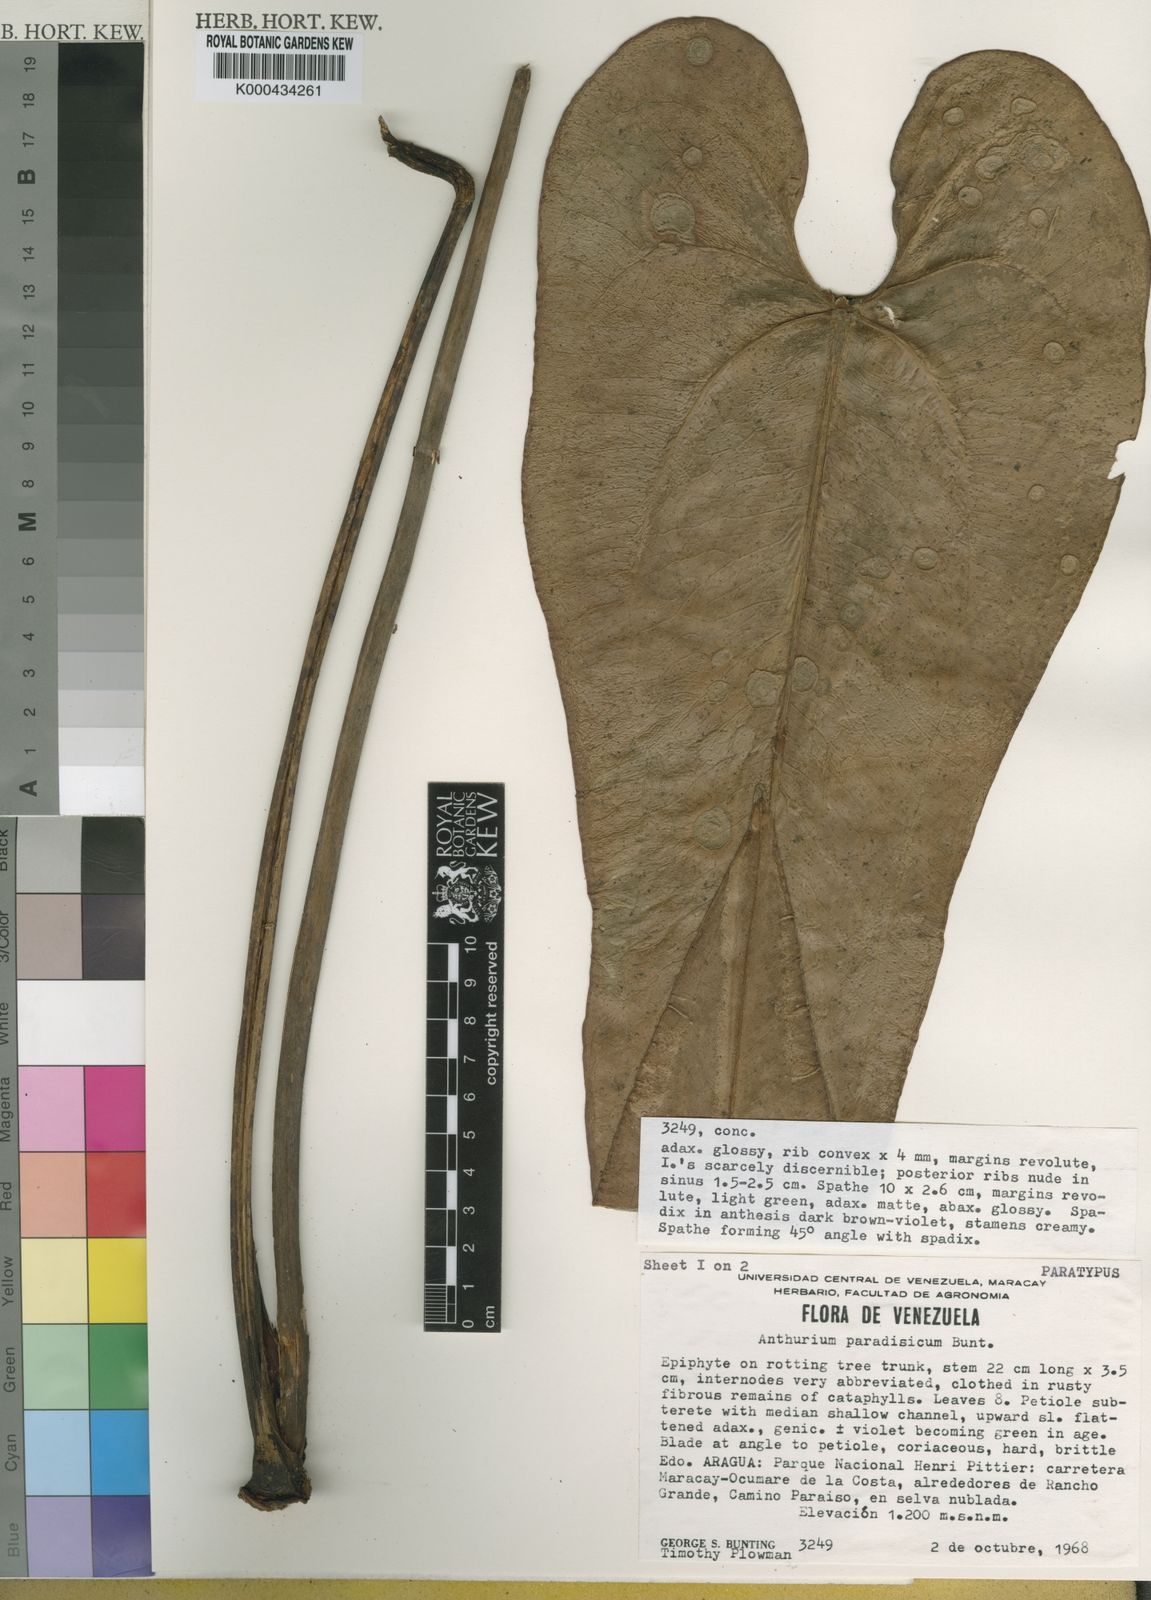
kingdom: Plantae
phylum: Tracheophyta
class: Liliopsida
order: Alismatales
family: Araceae
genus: Anthurium
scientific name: Anthurium paradisicum
